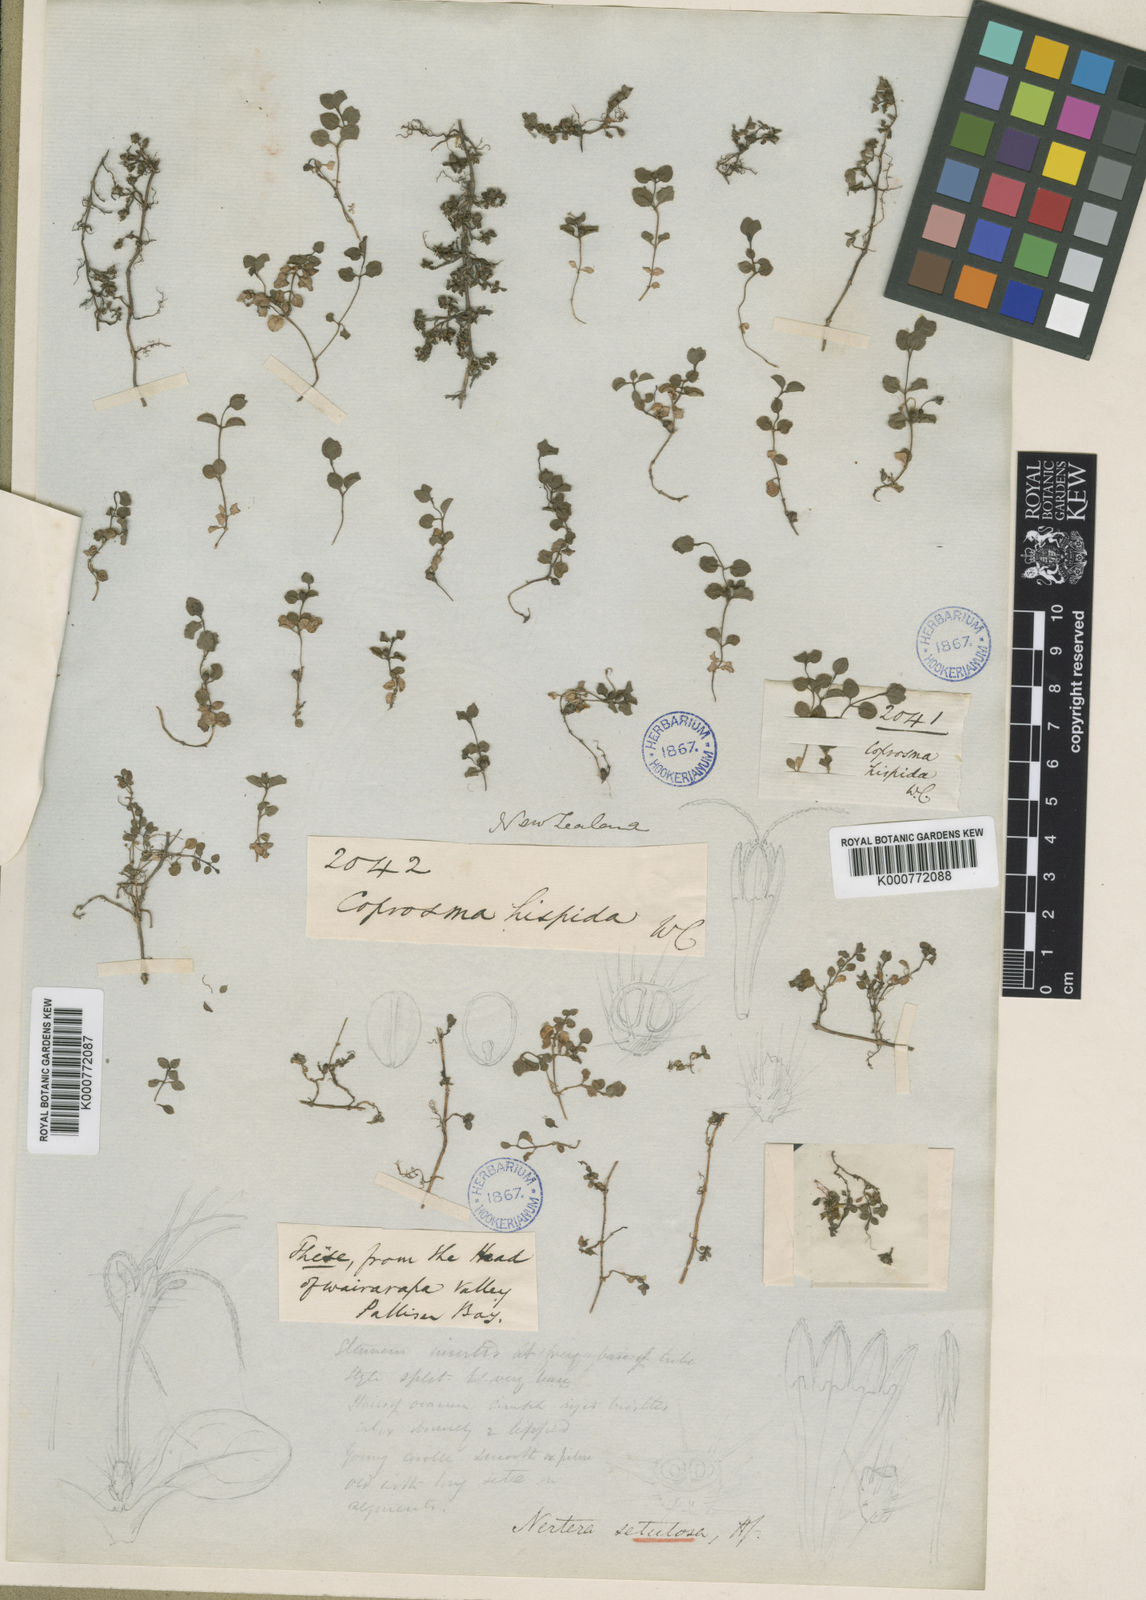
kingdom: Plantae
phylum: Tracheophyta
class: Magnoliopsida
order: Gentianales
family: Rubiaceae
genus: Leptostigma
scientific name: Leptostigma setulosum
